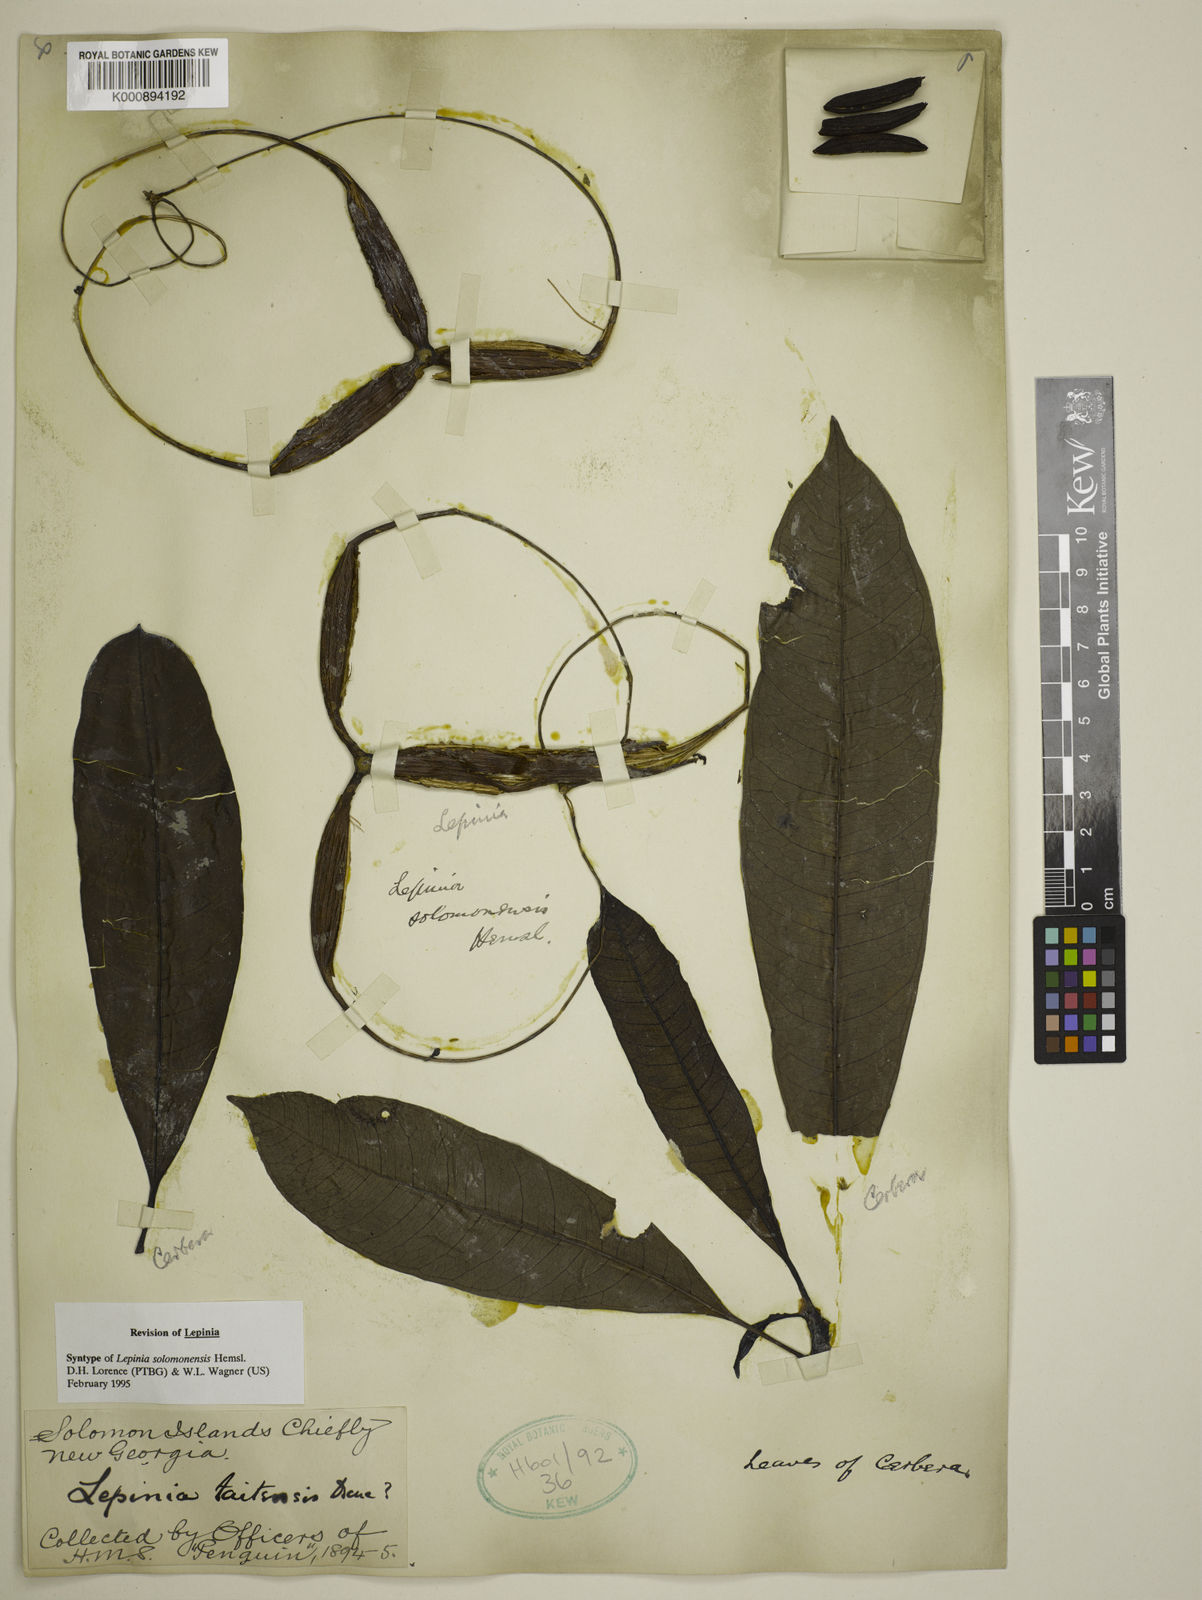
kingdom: Plantae
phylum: Tracheophyta
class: Magnoliopsida
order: Gentianales
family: Apocynaceae
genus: Lepinia
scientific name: Lepinia solomonensis
